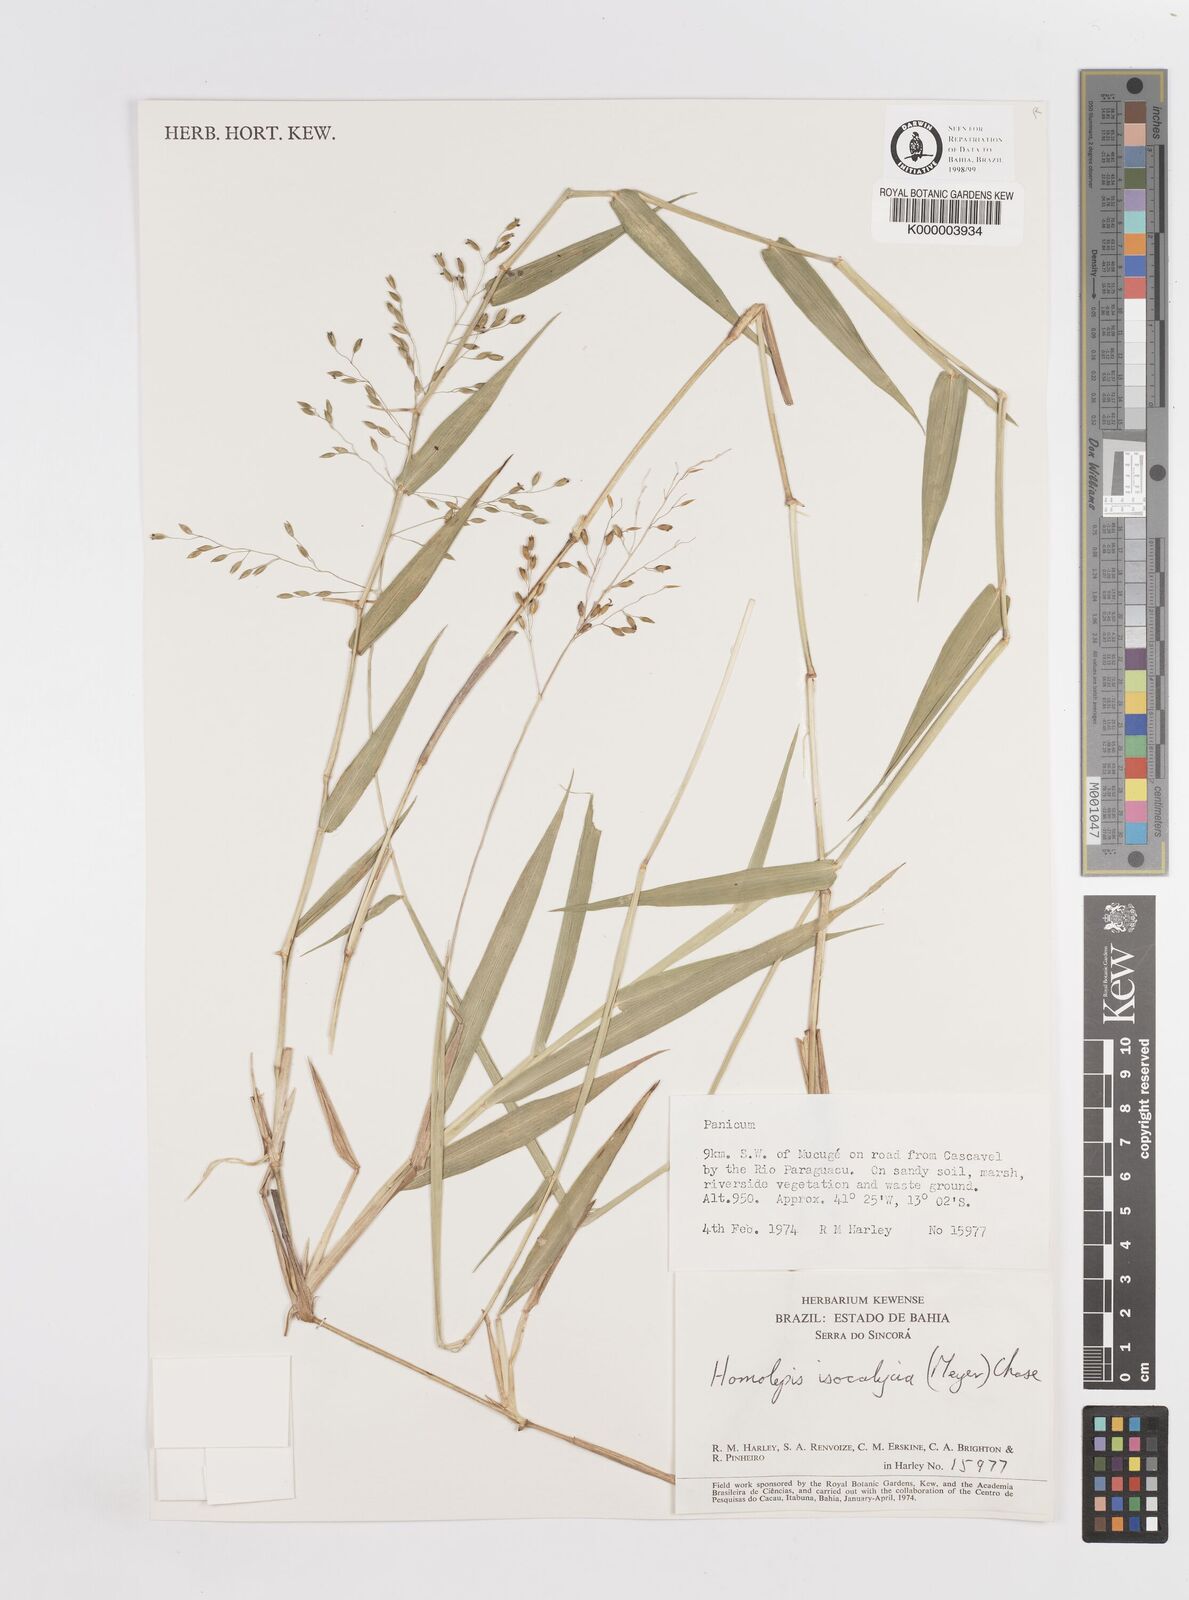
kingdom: Plantae
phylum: Tracheophyta
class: Liliopsida
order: Poales
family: Poaceae
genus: Homolepis
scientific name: Homolepis
